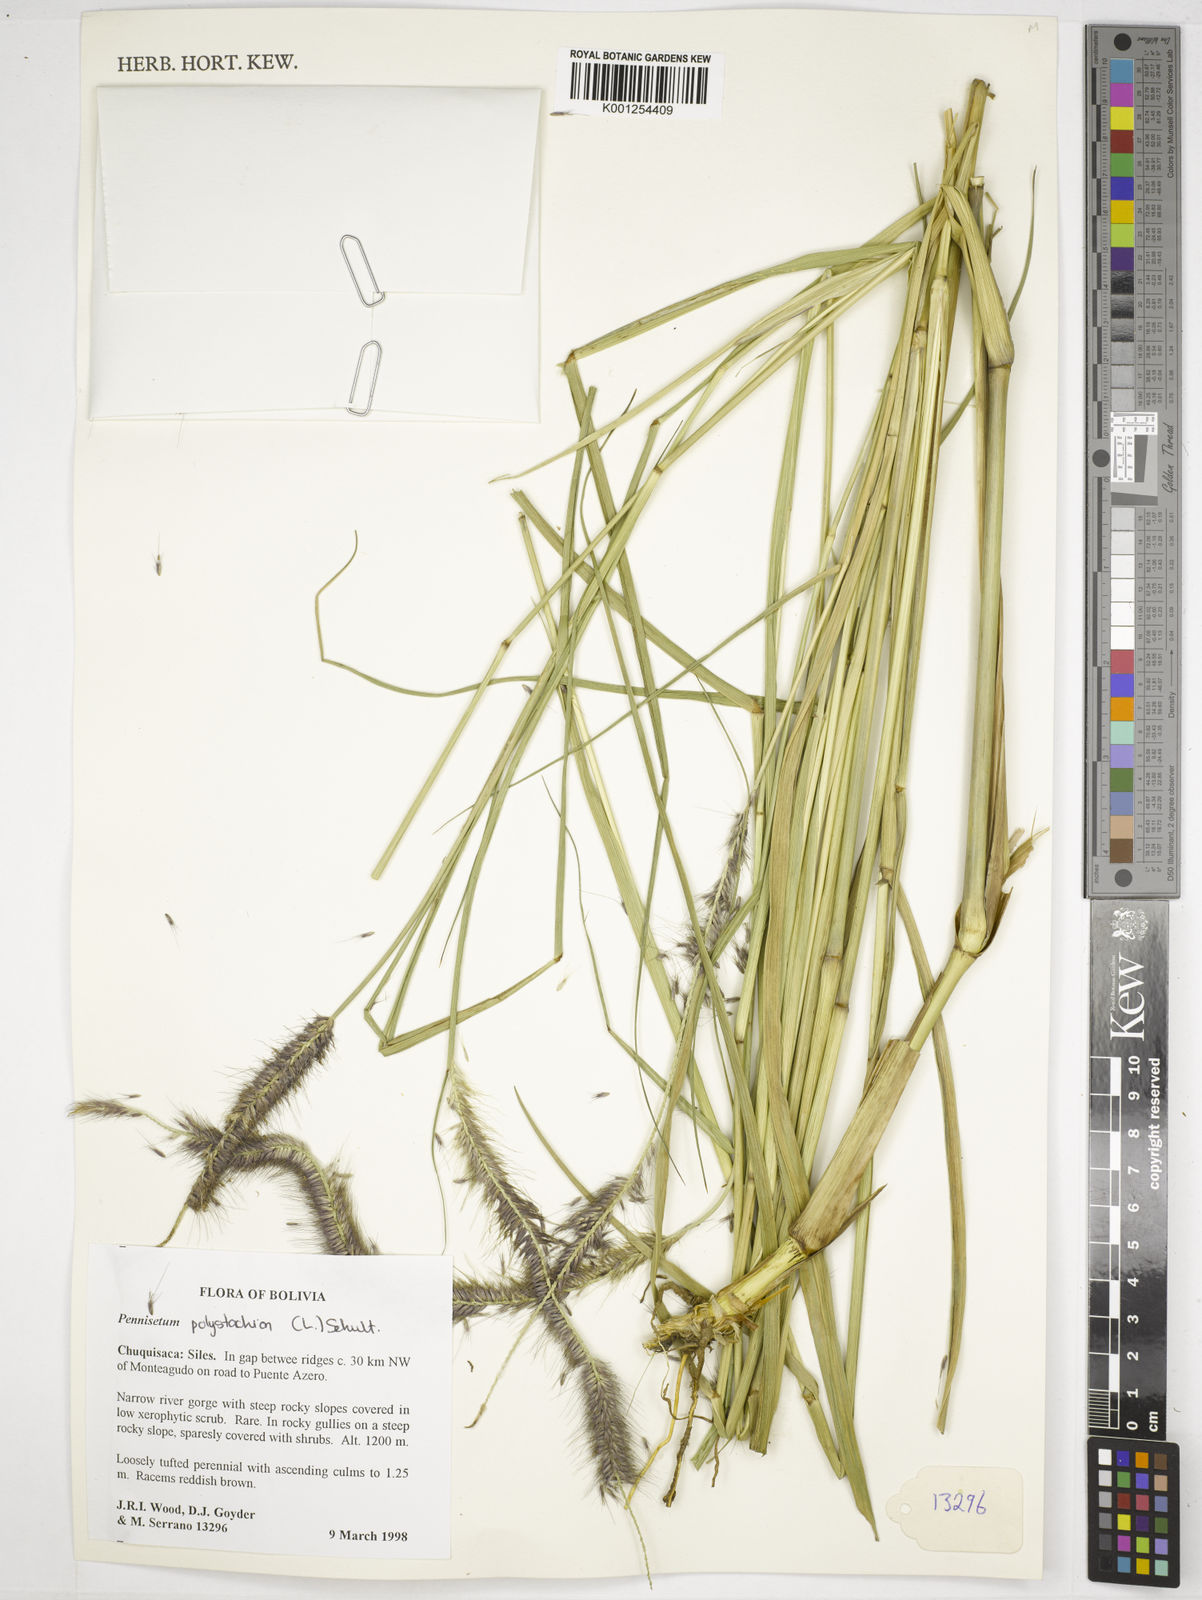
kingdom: Plantae
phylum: Tracheophyta
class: Liliopsida
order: Poales
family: Poaceae
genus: Setaria
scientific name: Setaria parviflora
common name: Knotroot bristle-grass
